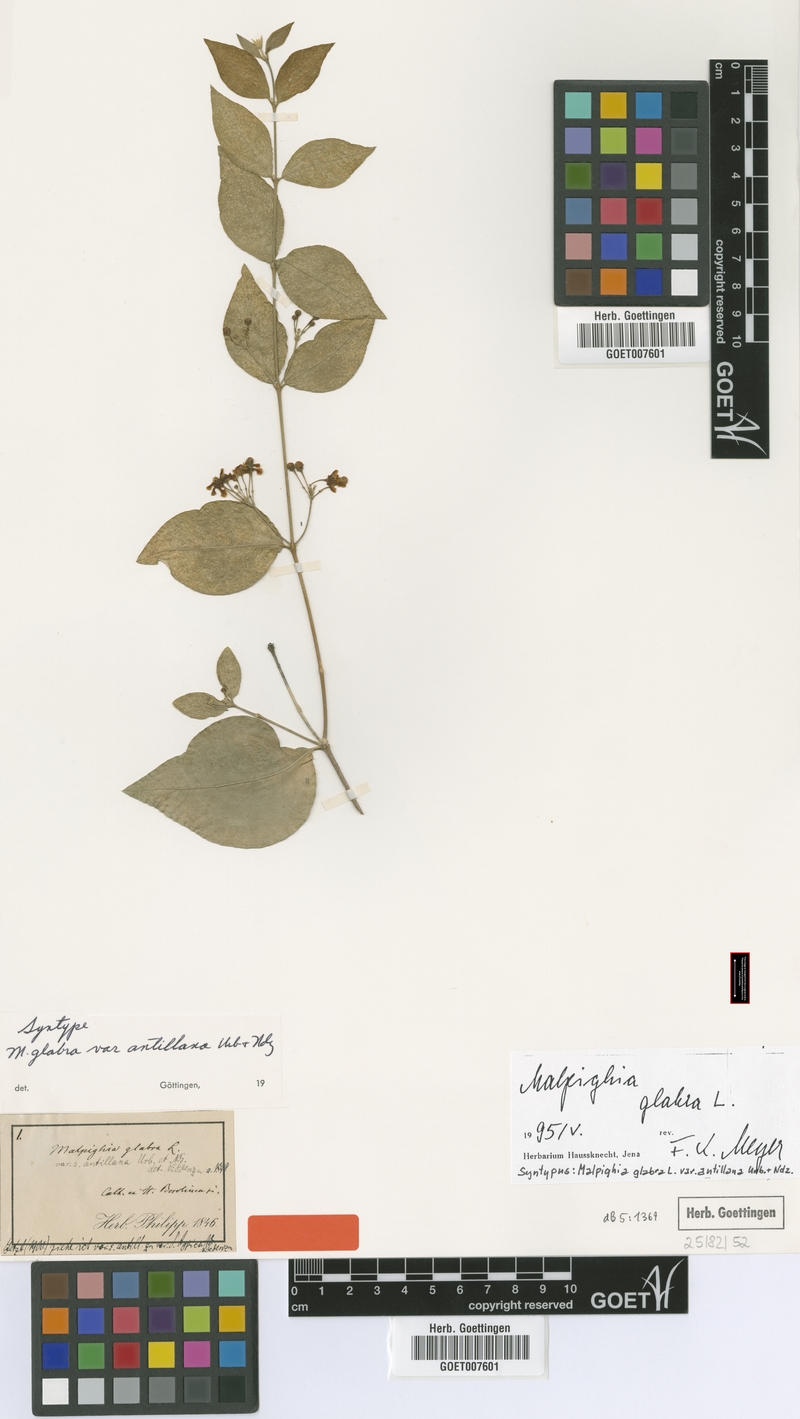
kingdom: Plantae
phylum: Tracheophyta
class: Magnoliopsida
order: Malpighiales
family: Malpighiaceae
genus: Malpighia
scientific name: Malpighia glabra
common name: Barbados cherry
